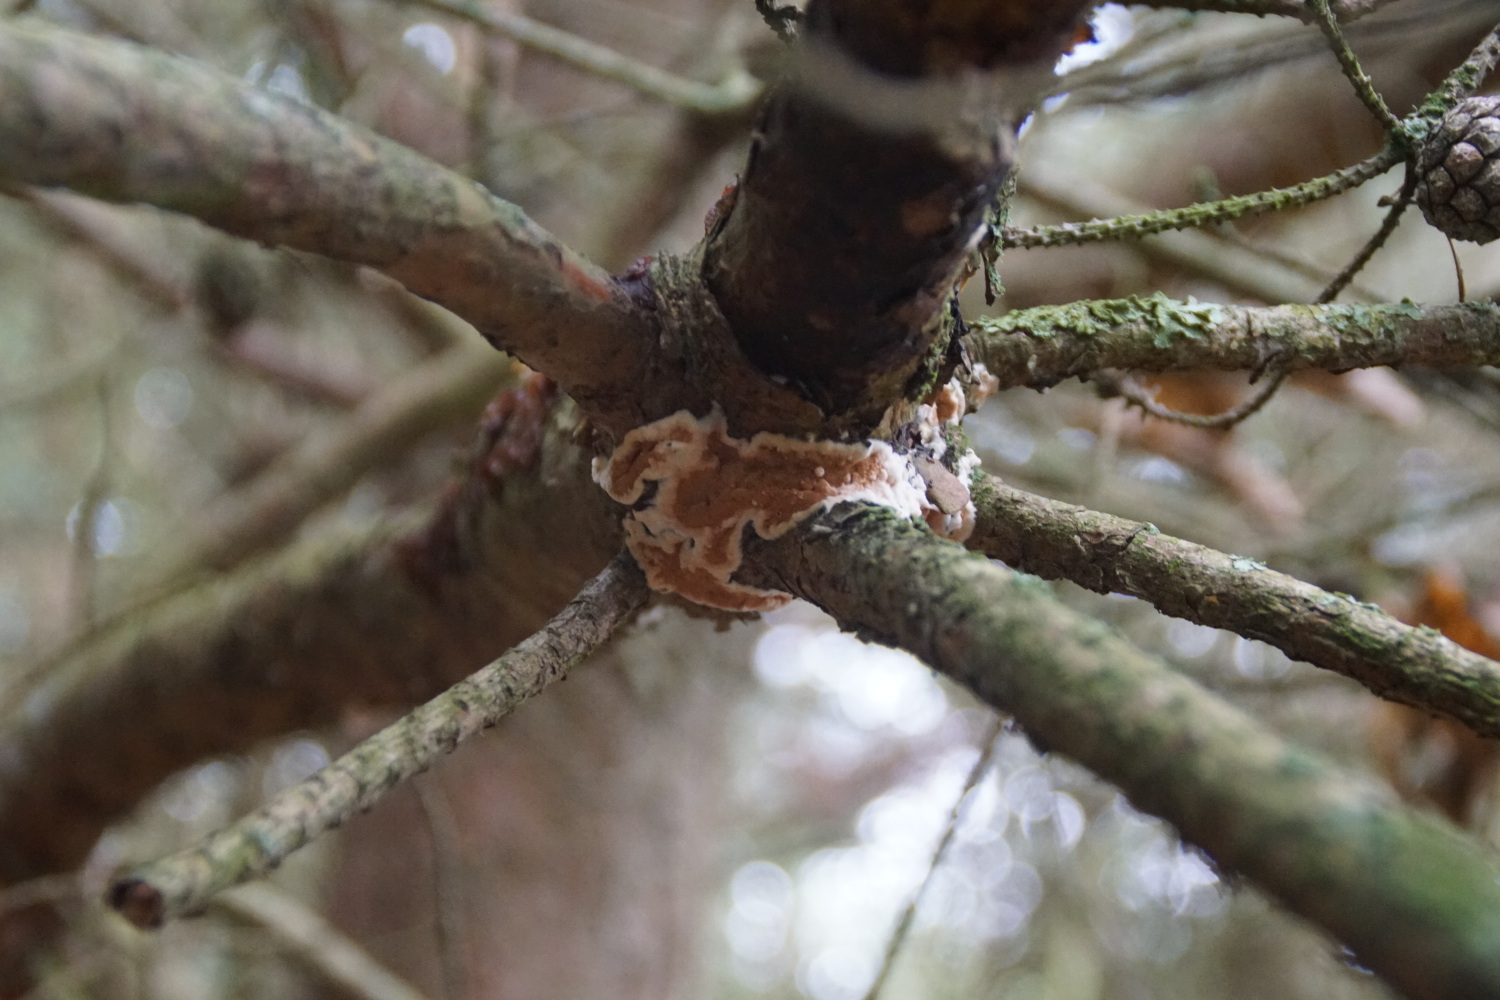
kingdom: Fungi
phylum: Basidiomycota
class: Agaricomycetes
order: Polyporales
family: Irpicaceae
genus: Meruliopsis
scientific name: Meruliopsis taxicola
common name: purpurbrun foldporesvamp
